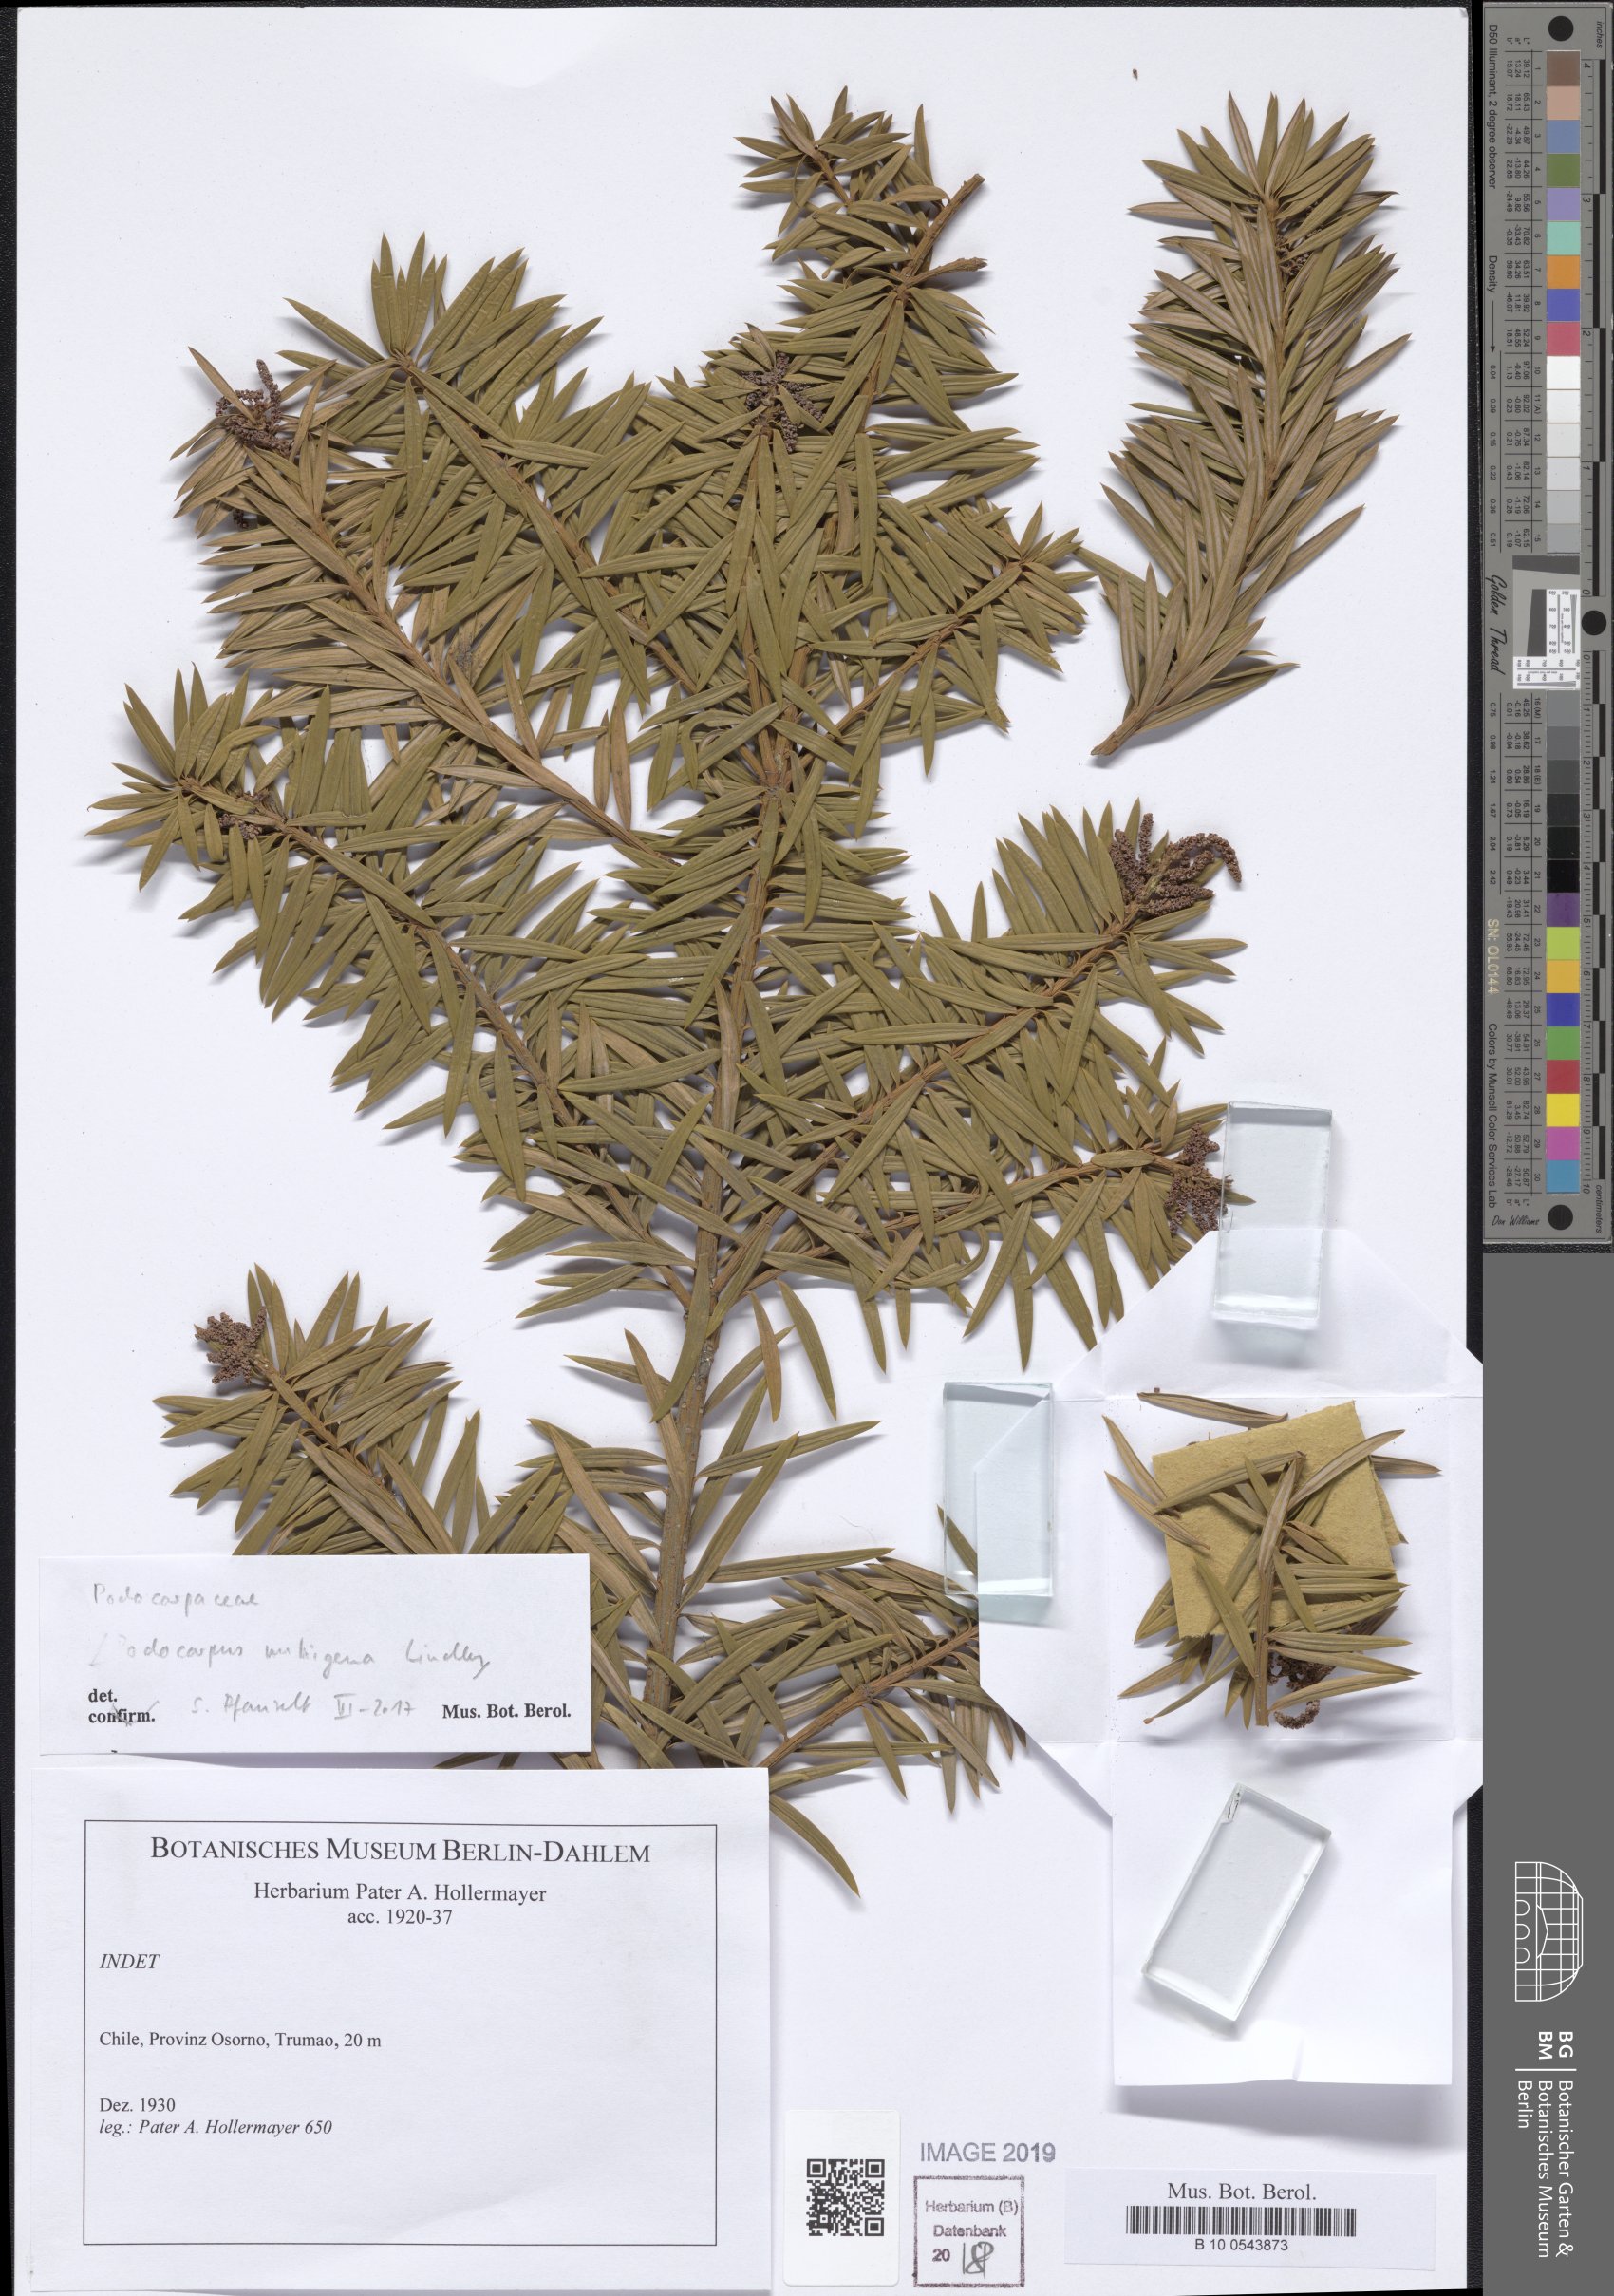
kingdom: Plantae
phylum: Tracheophyta
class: Pinopsida
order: Pinales
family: Podocarpaceae
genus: Podocarpus
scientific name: Podocarpus nubigenus
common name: Cloud podocarp
